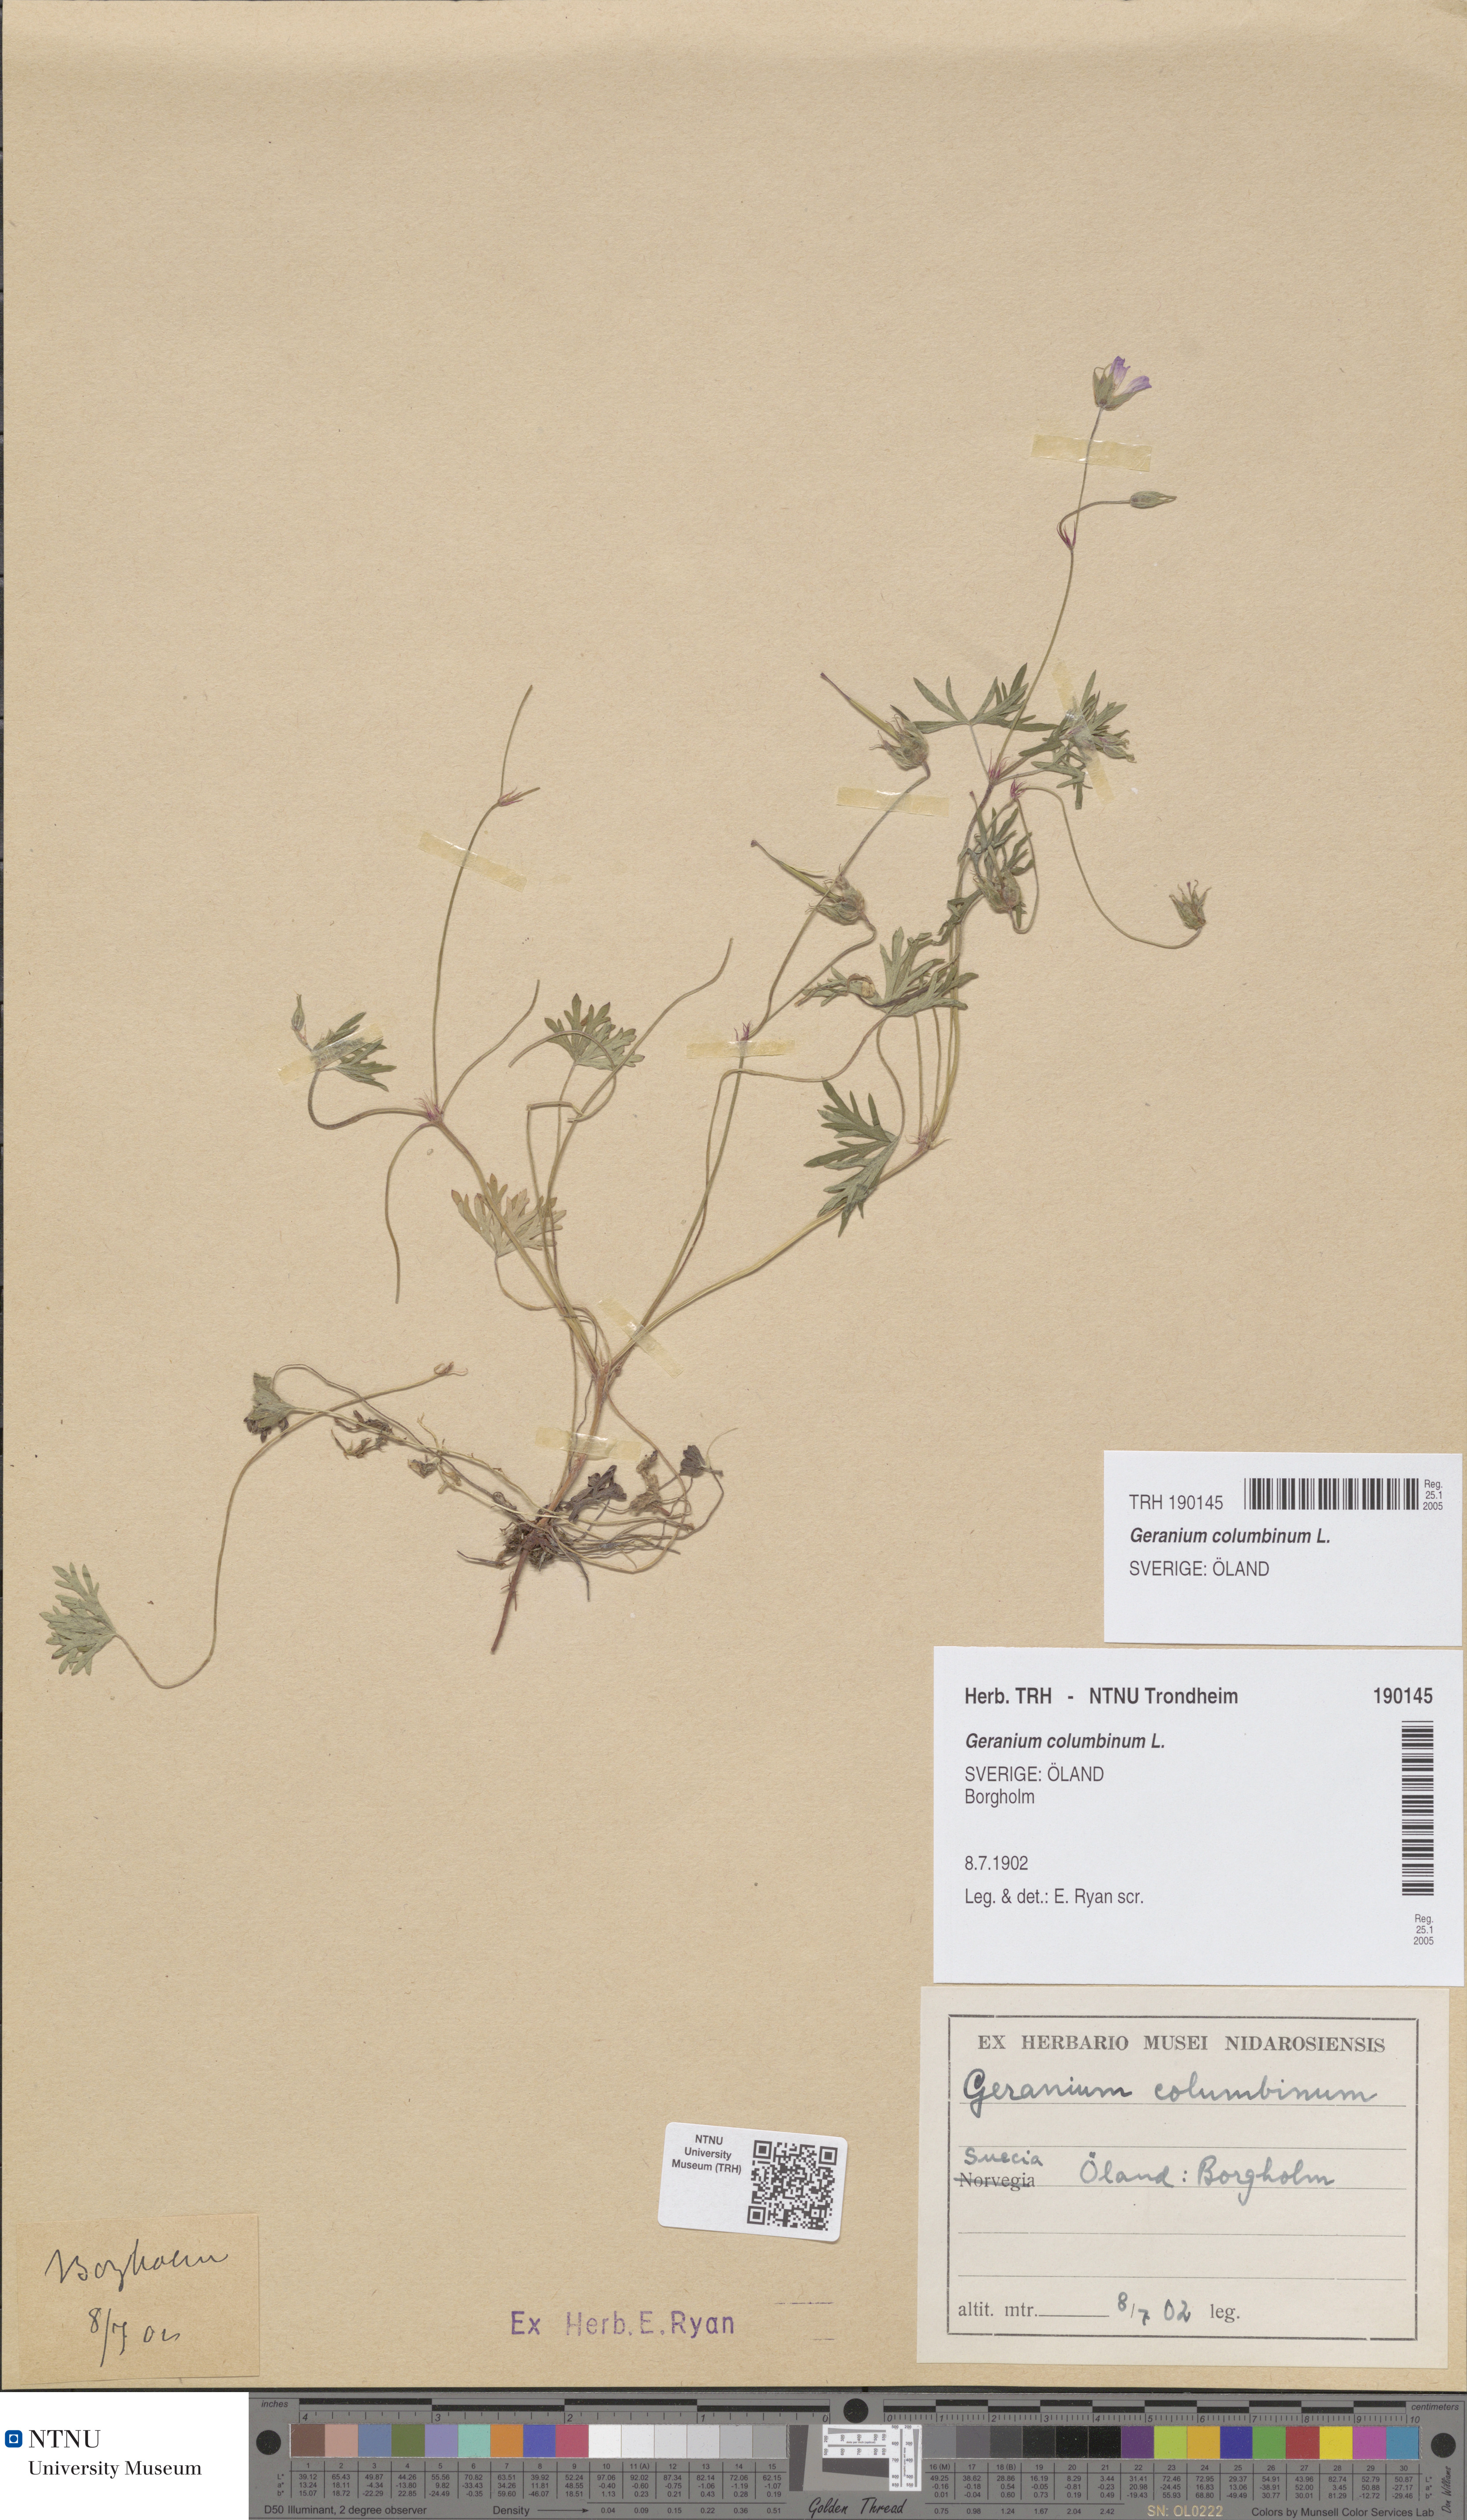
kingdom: Plantae
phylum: Tracheophyta
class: Magnoliopsida
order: Geraniales
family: Geraniaceae
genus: Geranium
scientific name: Geranium columbinum
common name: Long-stalked crane's-bill
